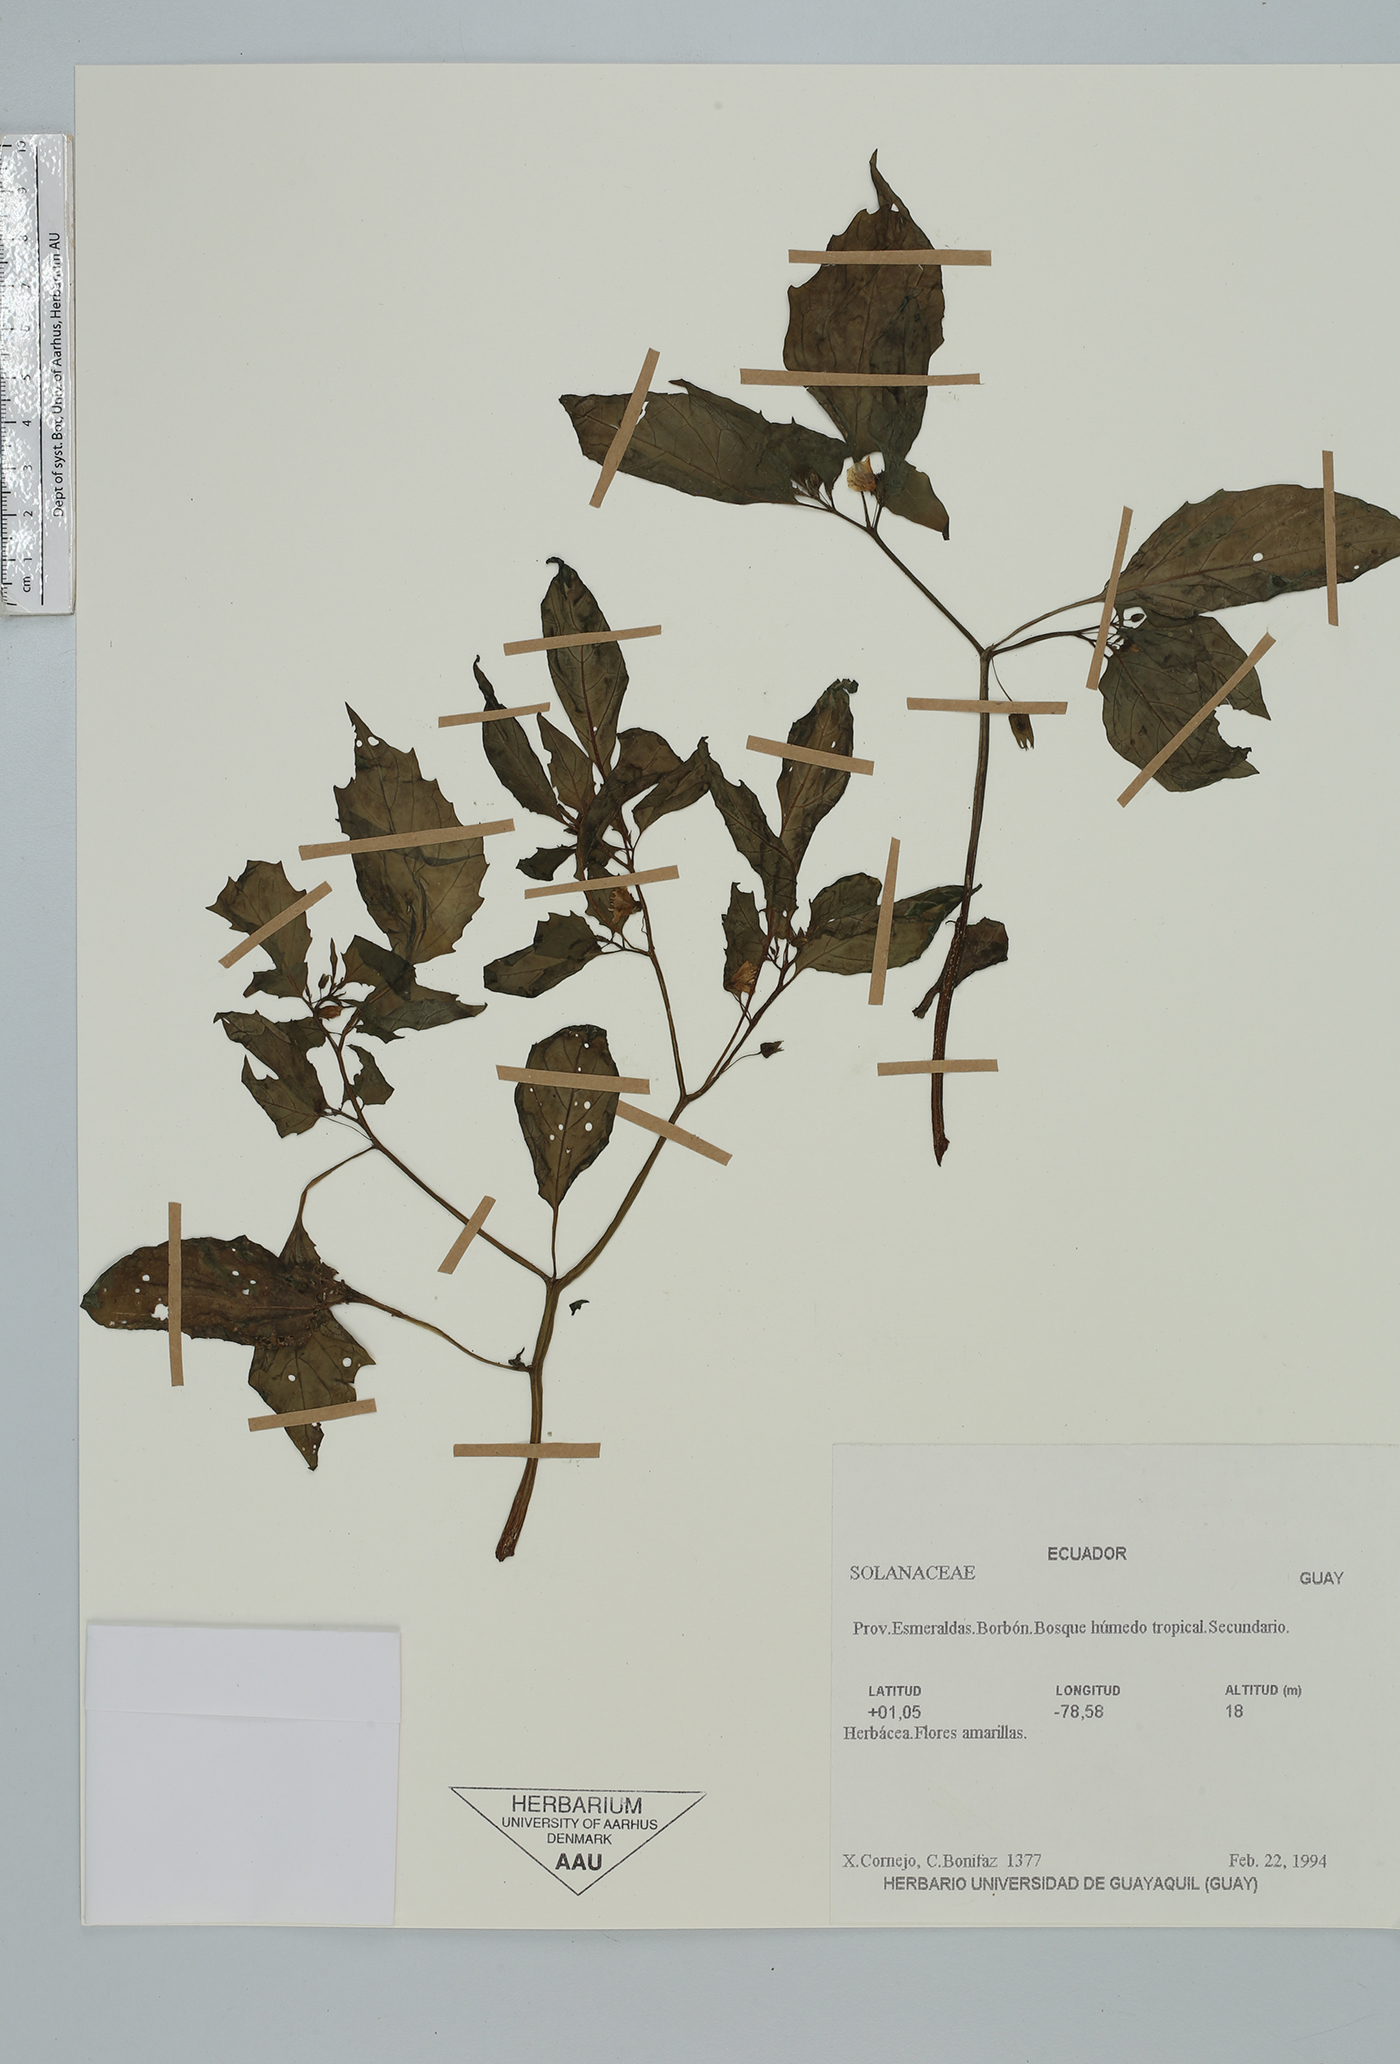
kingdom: Plantae
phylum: Tracheophyta
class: Magnoliopsida
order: Solanales
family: Solanaceae
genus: Physalis
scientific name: Physalis
